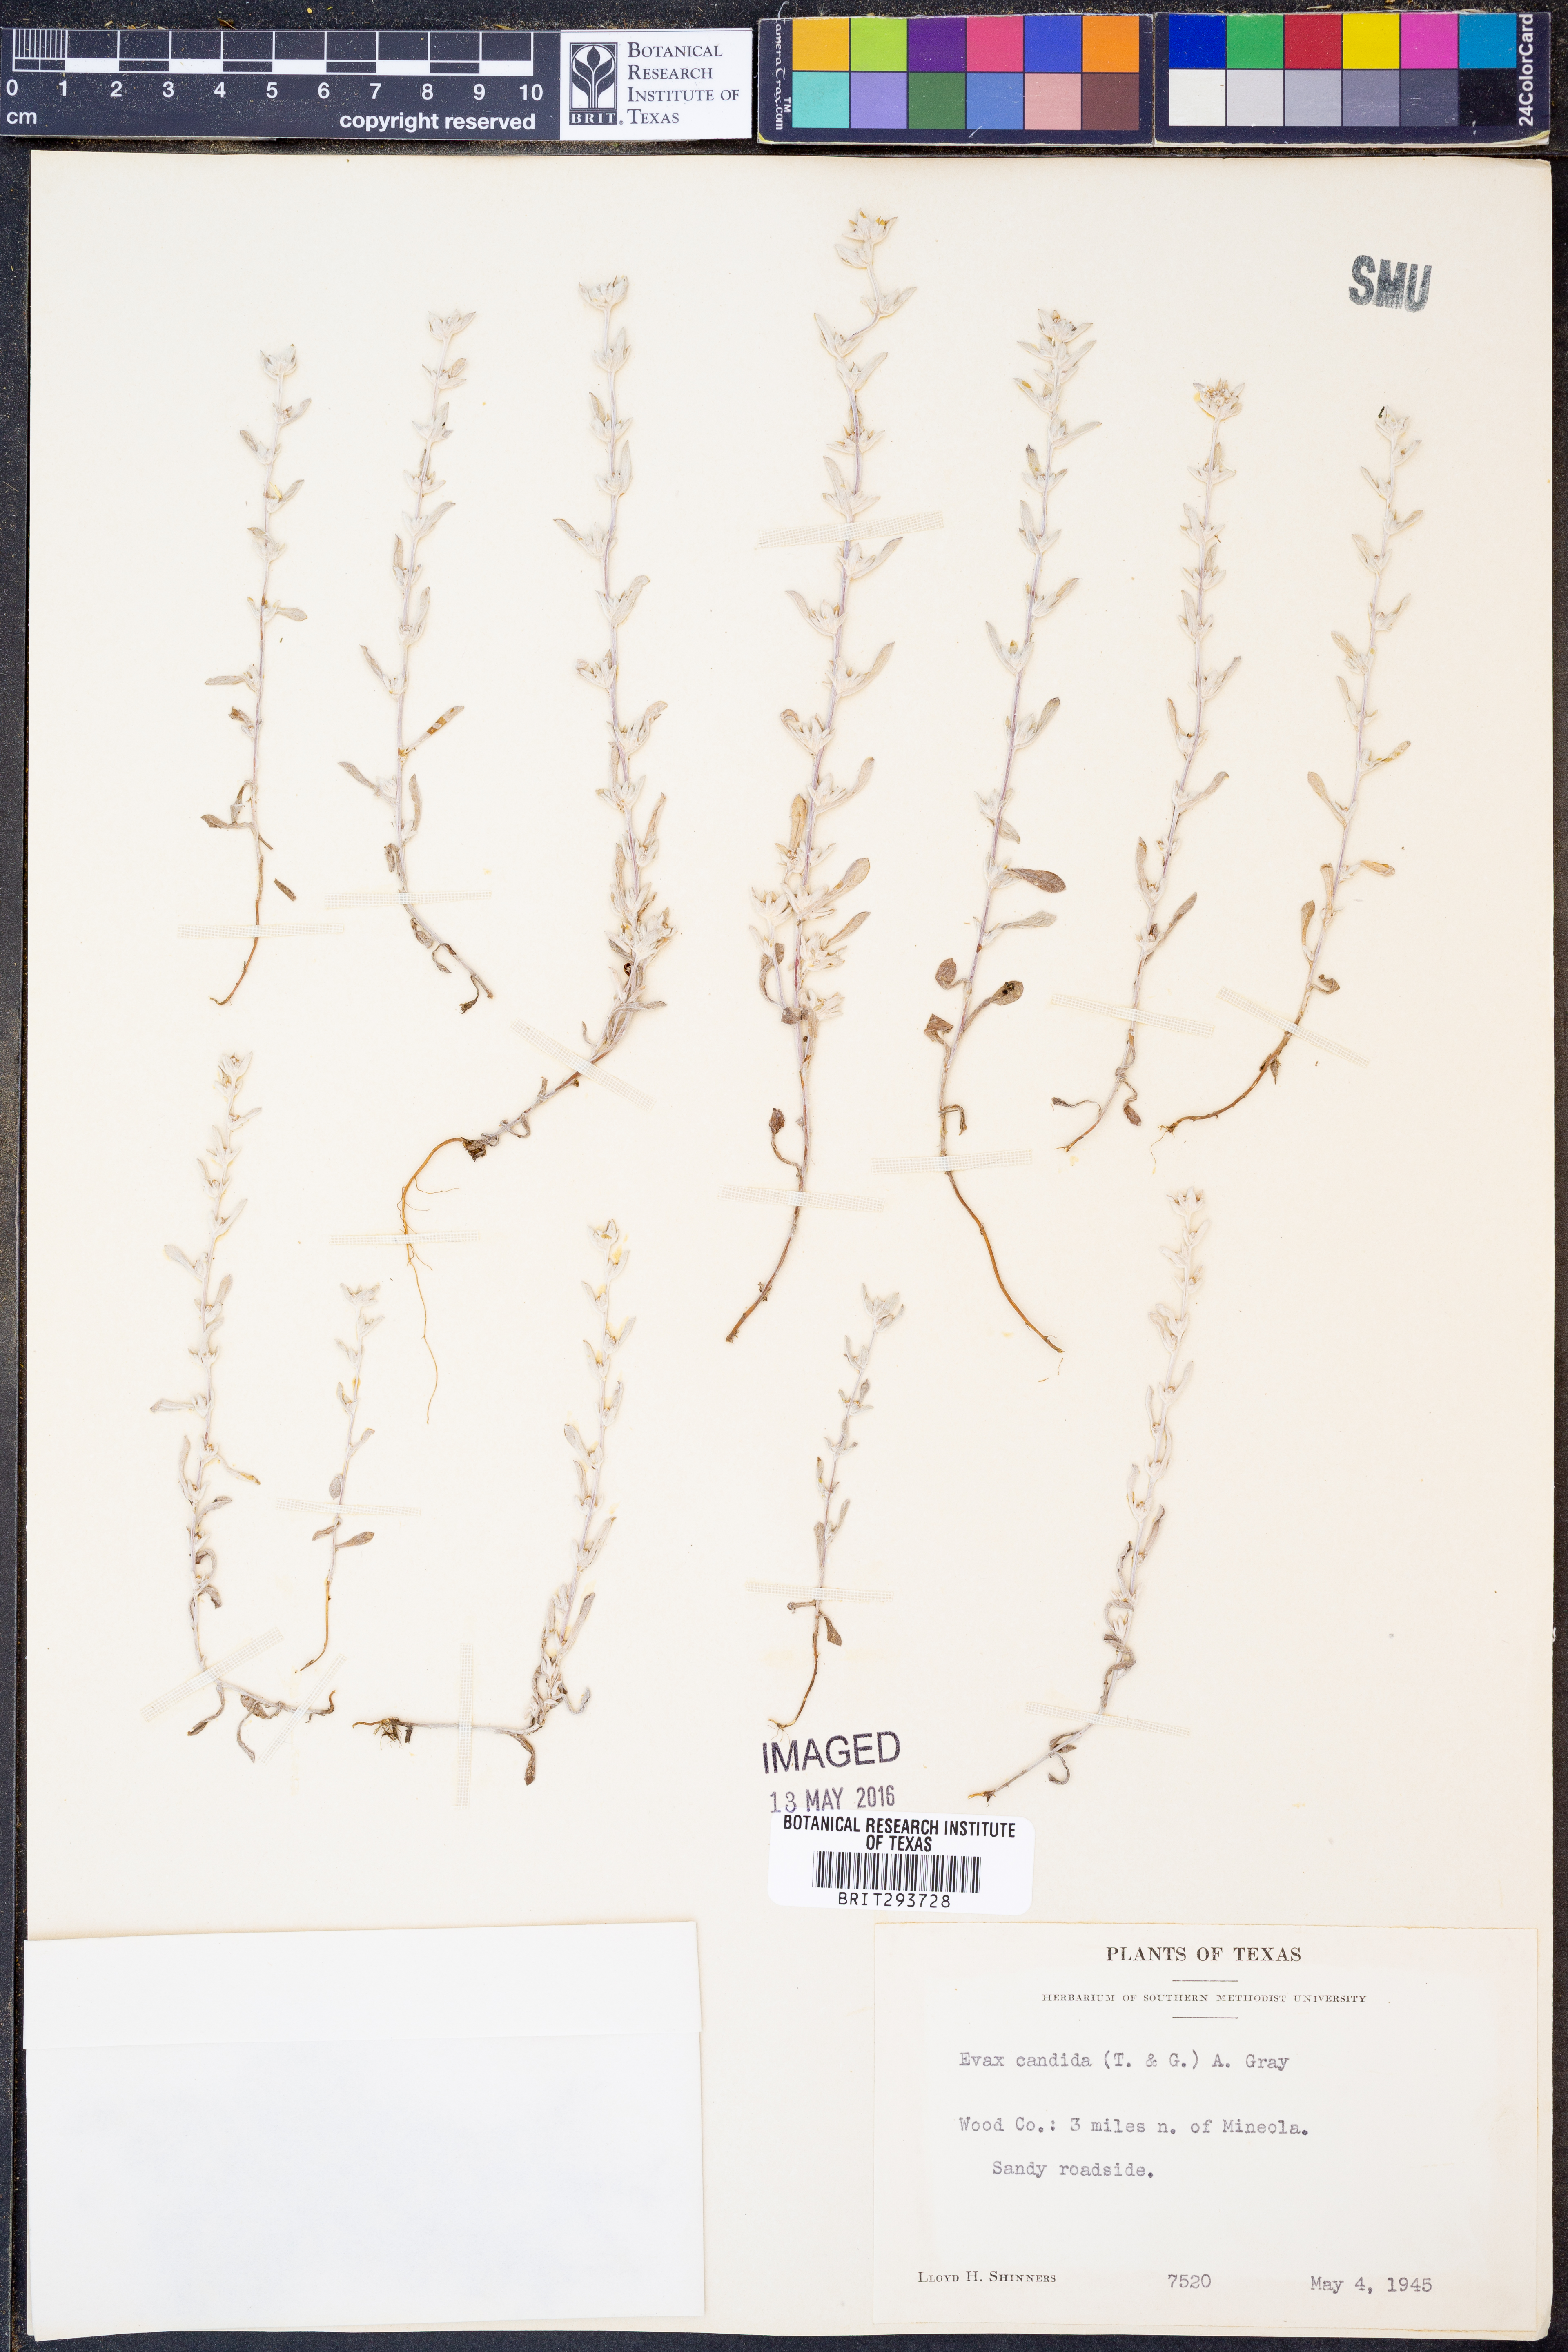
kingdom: Plantae
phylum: Tracheophyta
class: Magnoliopsida
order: Asterales
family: Asteraceae
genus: Diaperia
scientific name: Diaperia candida
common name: Silver rabbit-tobacco
